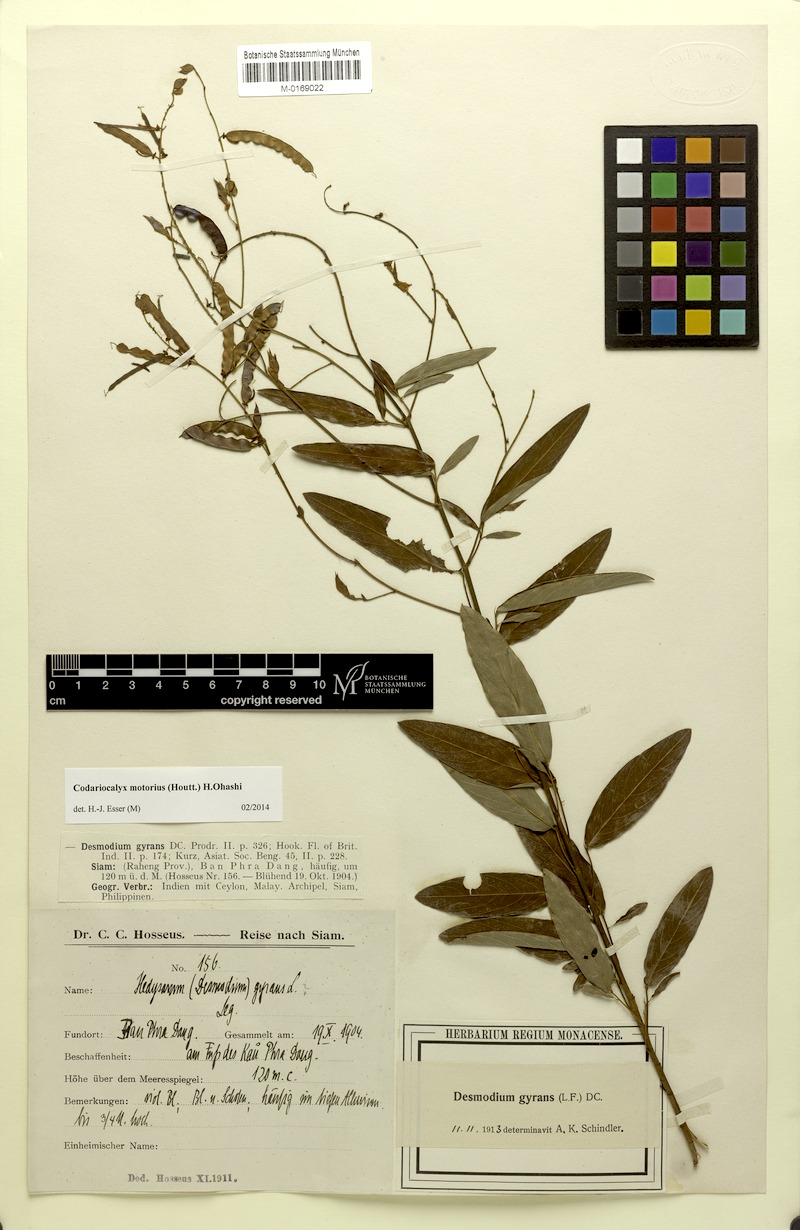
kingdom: Plantae
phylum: Tracheophyta
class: Magnoliopsida
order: Fabales
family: Fabaceae
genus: Codariocalyx
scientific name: Codariocalyx motorius
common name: Telegraph-plant
